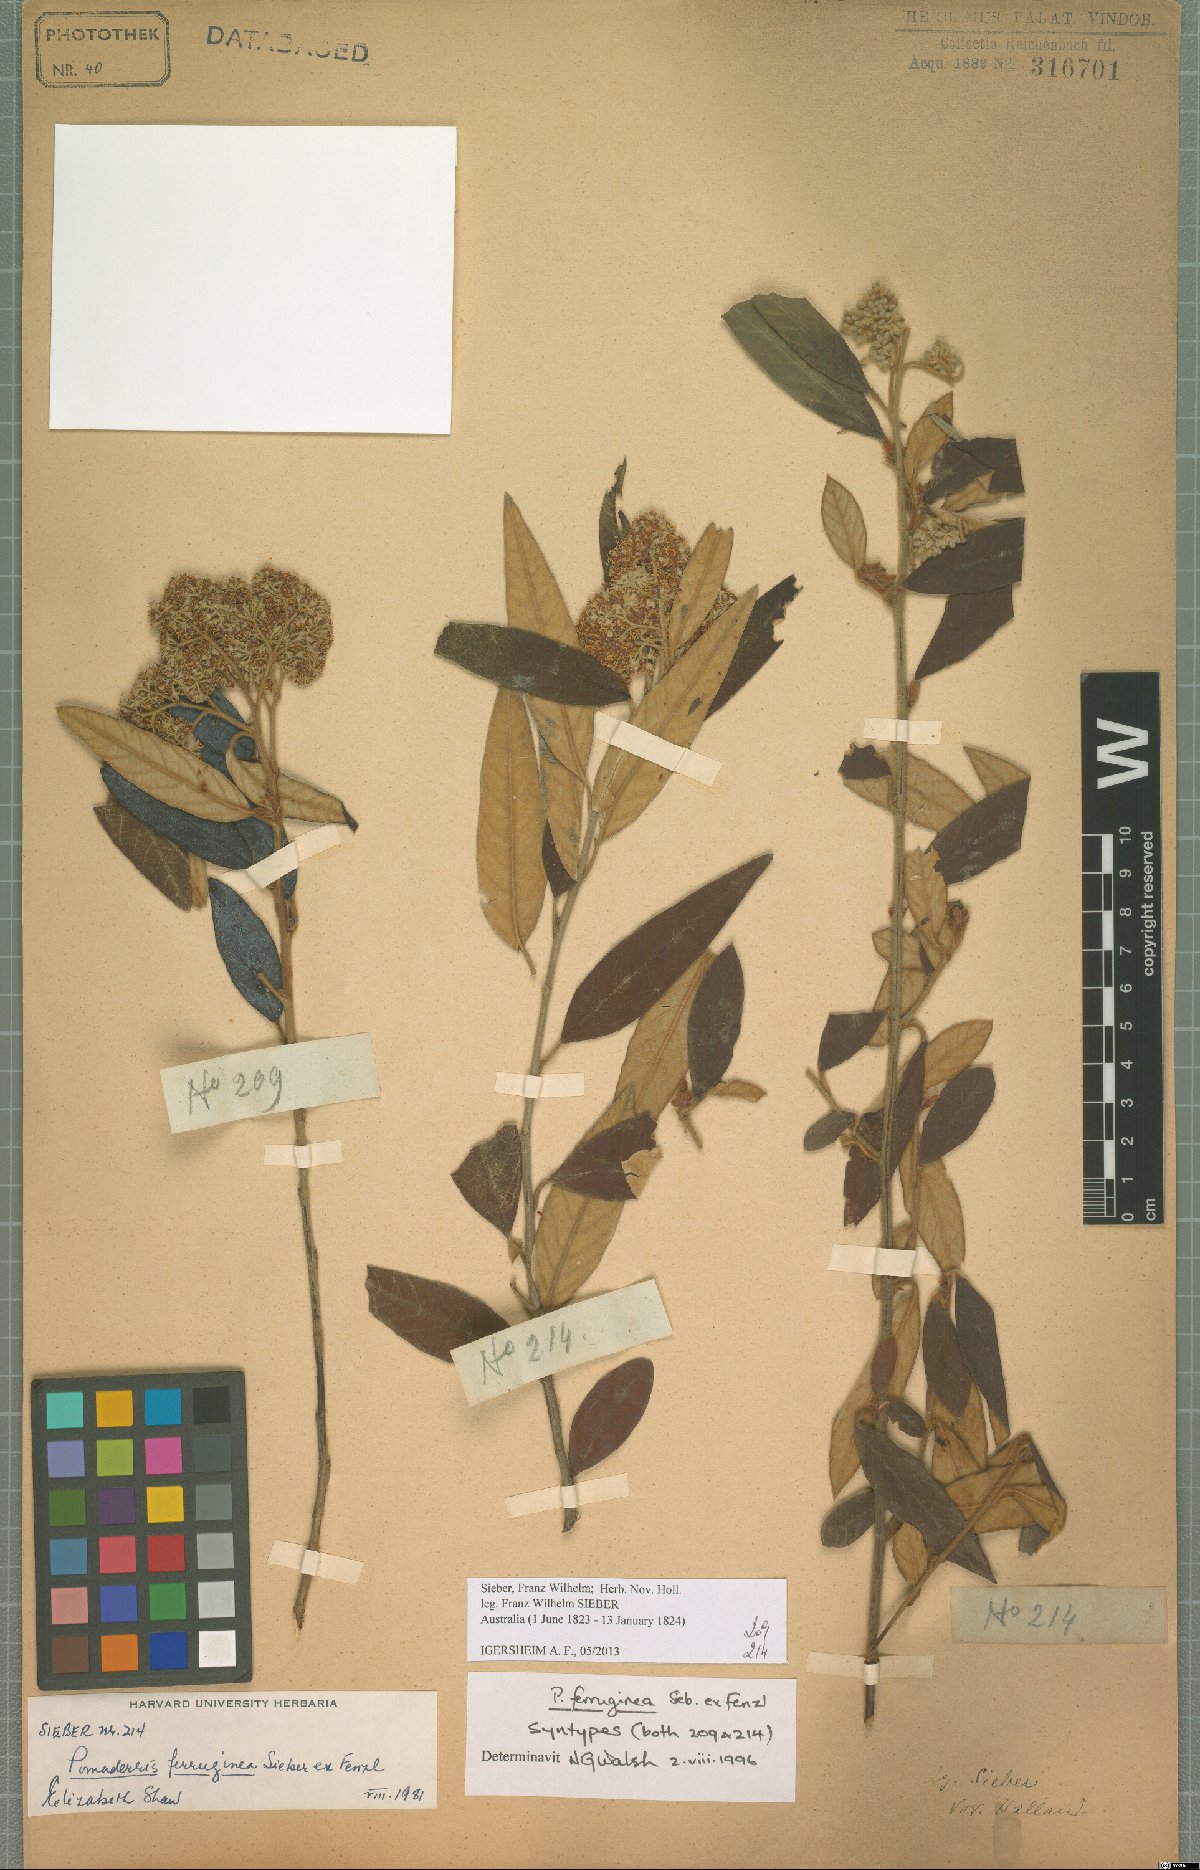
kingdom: Plantae
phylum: Tracheophyta
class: Magnoliopsida
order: Rosales
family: Rhamnaceae
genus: Pomaderris
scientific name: Pomaderris wendlandiana
